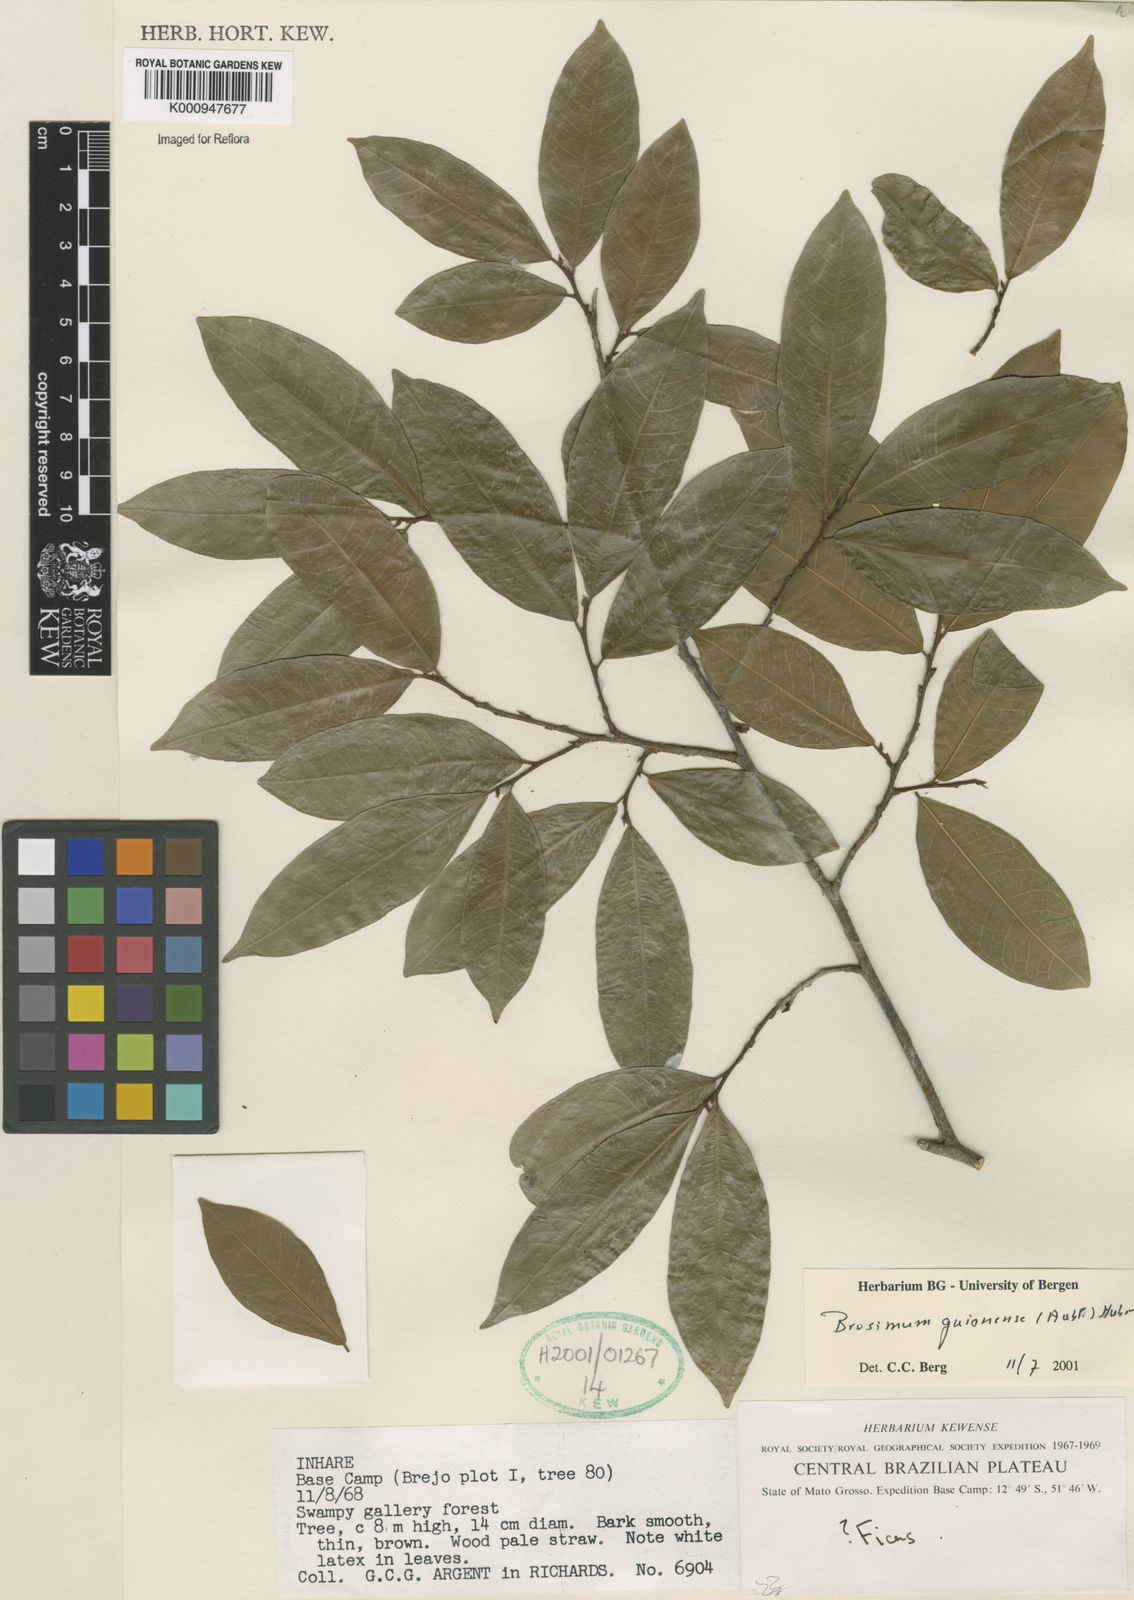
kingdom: Plantae
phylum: Tracheophyta
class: Magnoliopsida
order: Rosales
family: Moraceae
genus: Brosimum
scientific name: Brosimum
